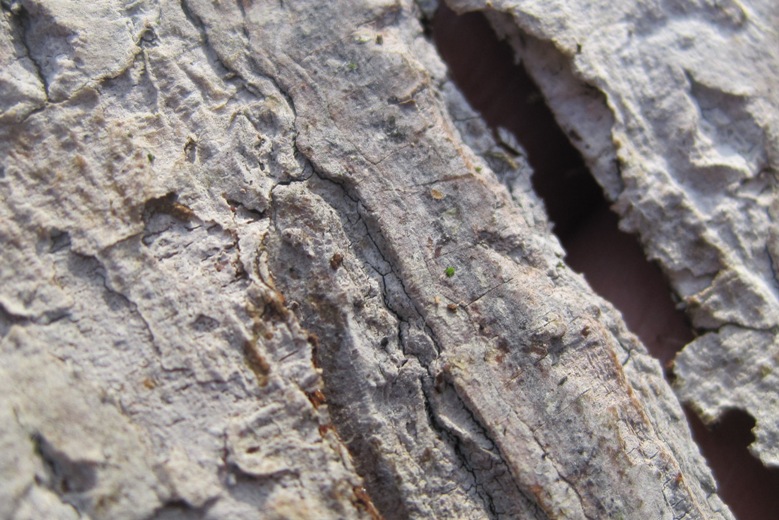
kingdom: Fungi
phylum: Basidiomycota
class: Agaricomycetes
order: Cantharellales
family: Hydnaceae
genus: Sistotrema
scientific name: Sistotrema brinkmannii
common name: bønnesporet kroneskorpe
